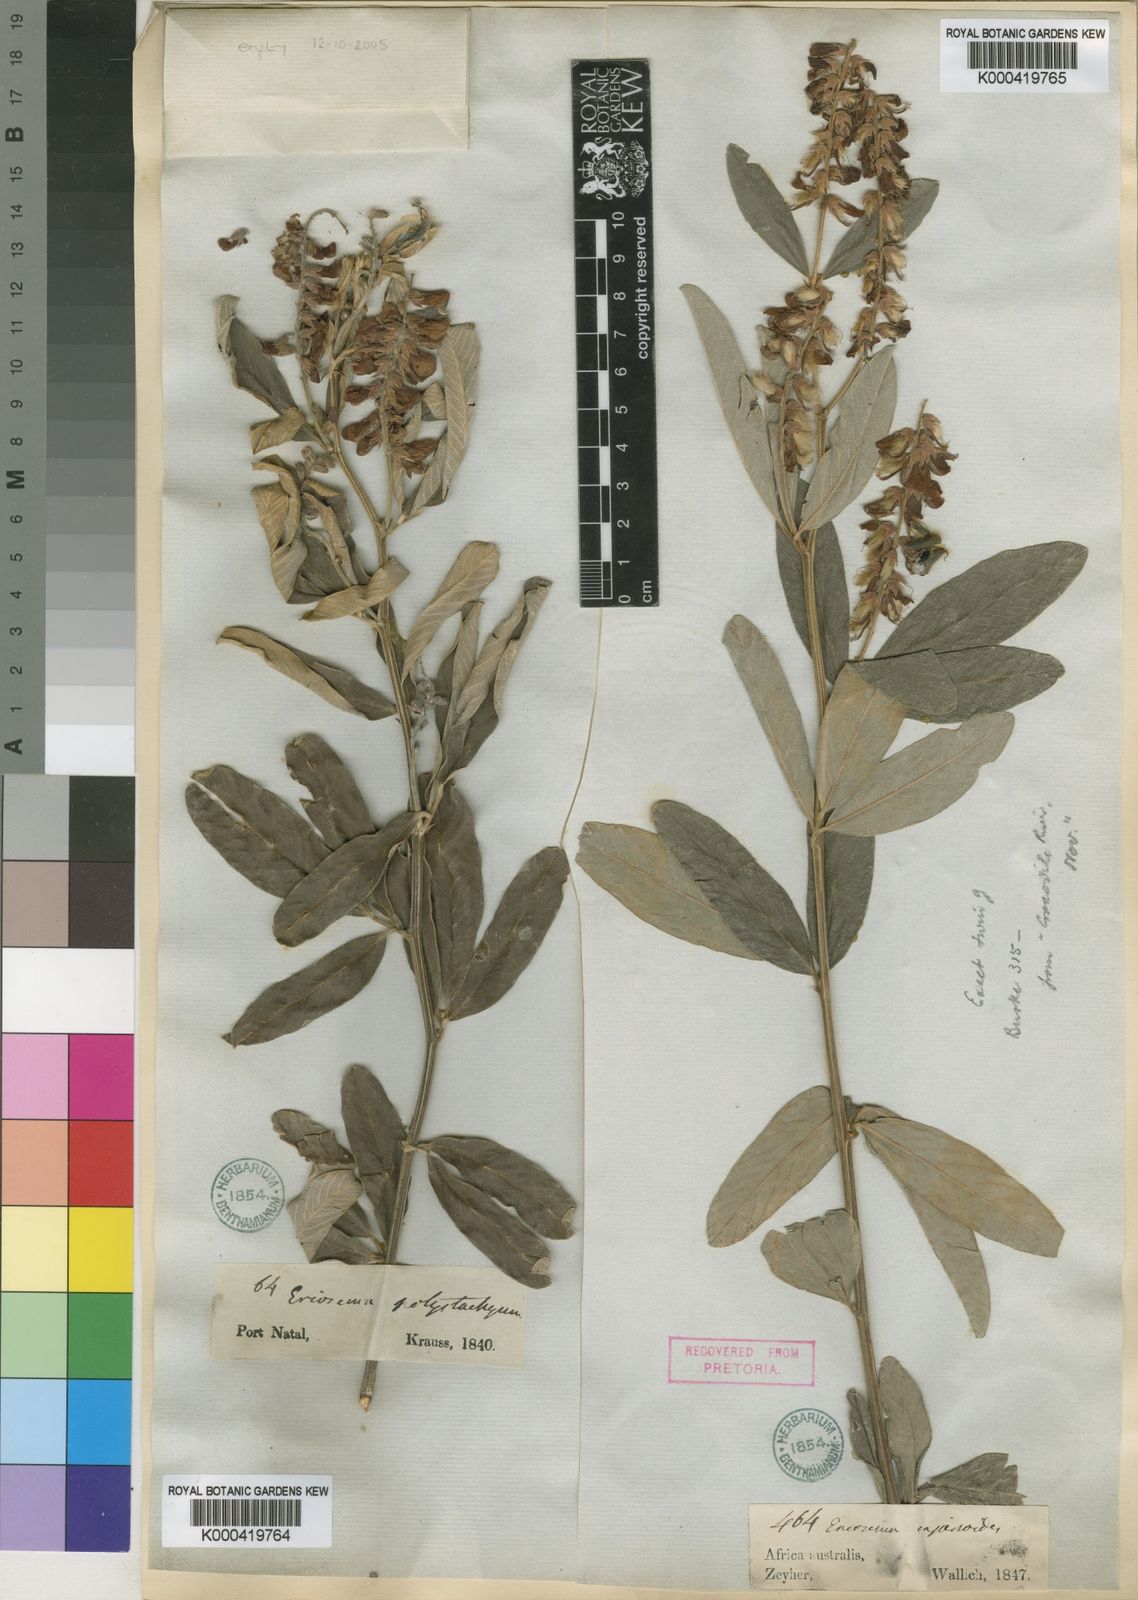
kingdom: Plantae
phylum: Tracheophyta
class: Magnoliopsida
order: Fabales
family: Fabaceae
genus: Eriosema
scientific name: Eriosema psoraleoides
